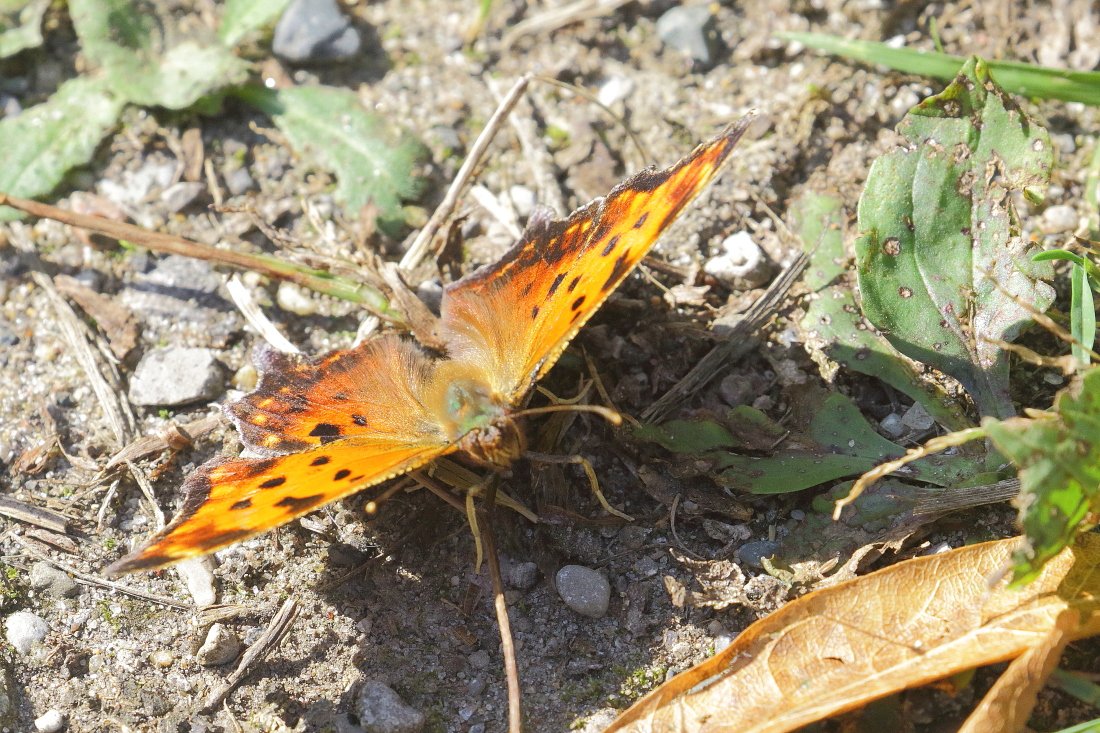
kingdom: Animalia
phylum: Arthropoda
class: Insecta
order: Lepidoptera
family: Nymphalidae
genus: Polygonia
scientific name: Polygonia comma
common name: Eastern Comma
